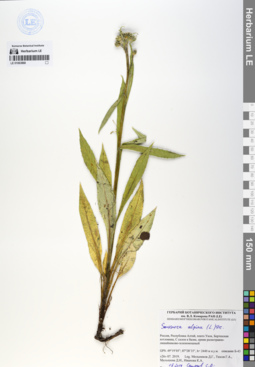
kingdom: Plantae
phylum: Tracheophyta
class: Magnoliopsida
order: Asterales
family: Asteraceae
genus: Saussurea
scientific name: Saussurea alpina
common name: Alpine saw-wort
